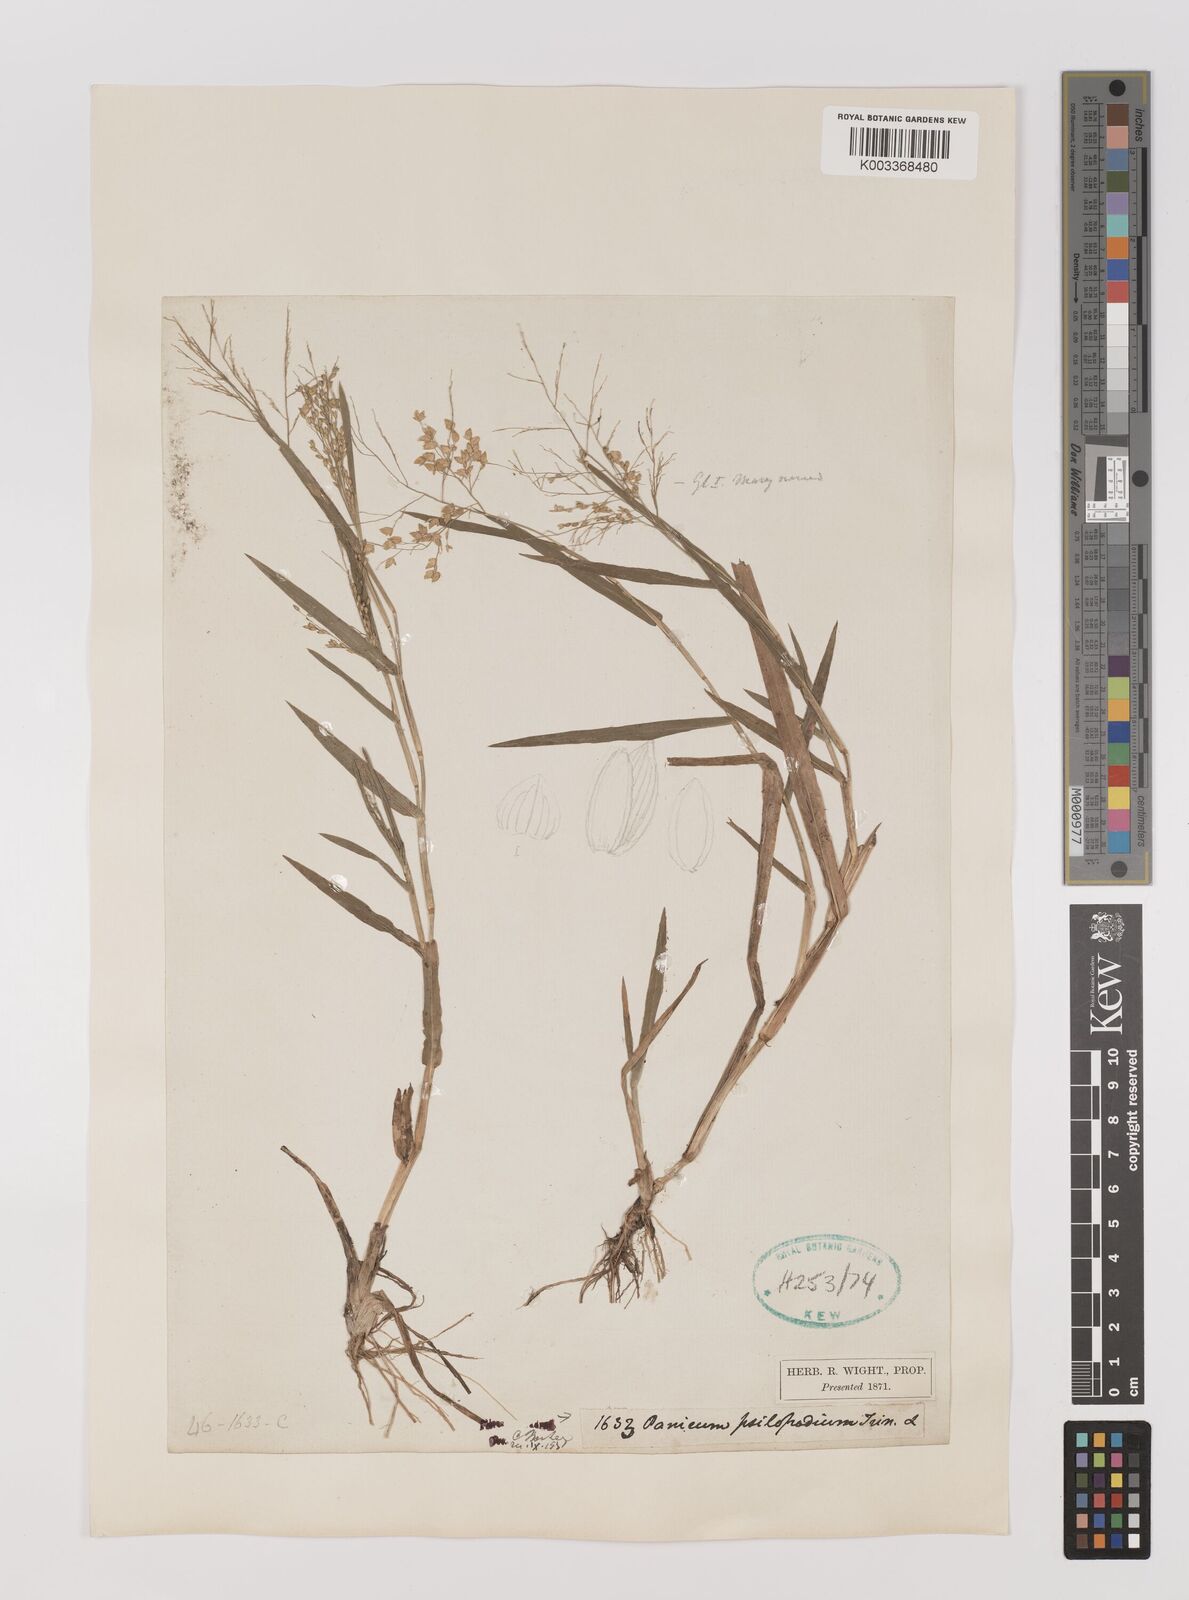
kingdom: Plantae
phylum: Tracheophyta
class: Liliopsida
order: Poales
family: Poaceae
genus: Panicum
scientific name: Panicum sumatrense
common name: Little millet
